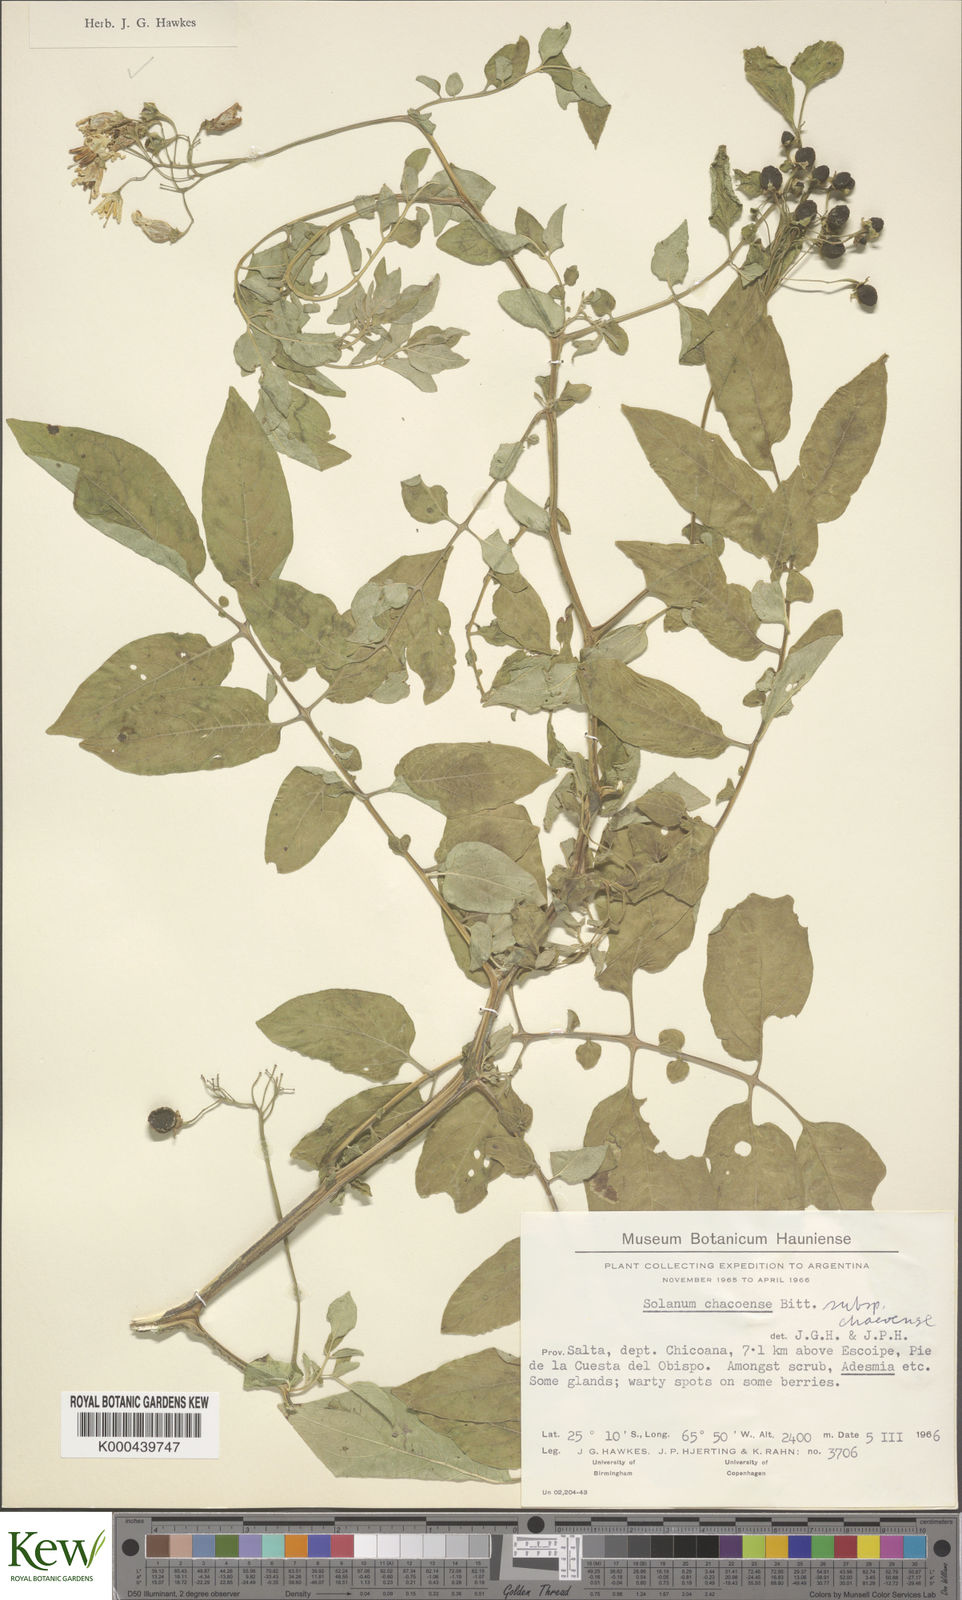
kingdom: Plantae
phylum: Tracheophyta
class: Magnoliopsida
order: Solanales
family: Solanaceae
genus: Solanum
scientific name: Solanum chacoense
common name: Chaco potato
